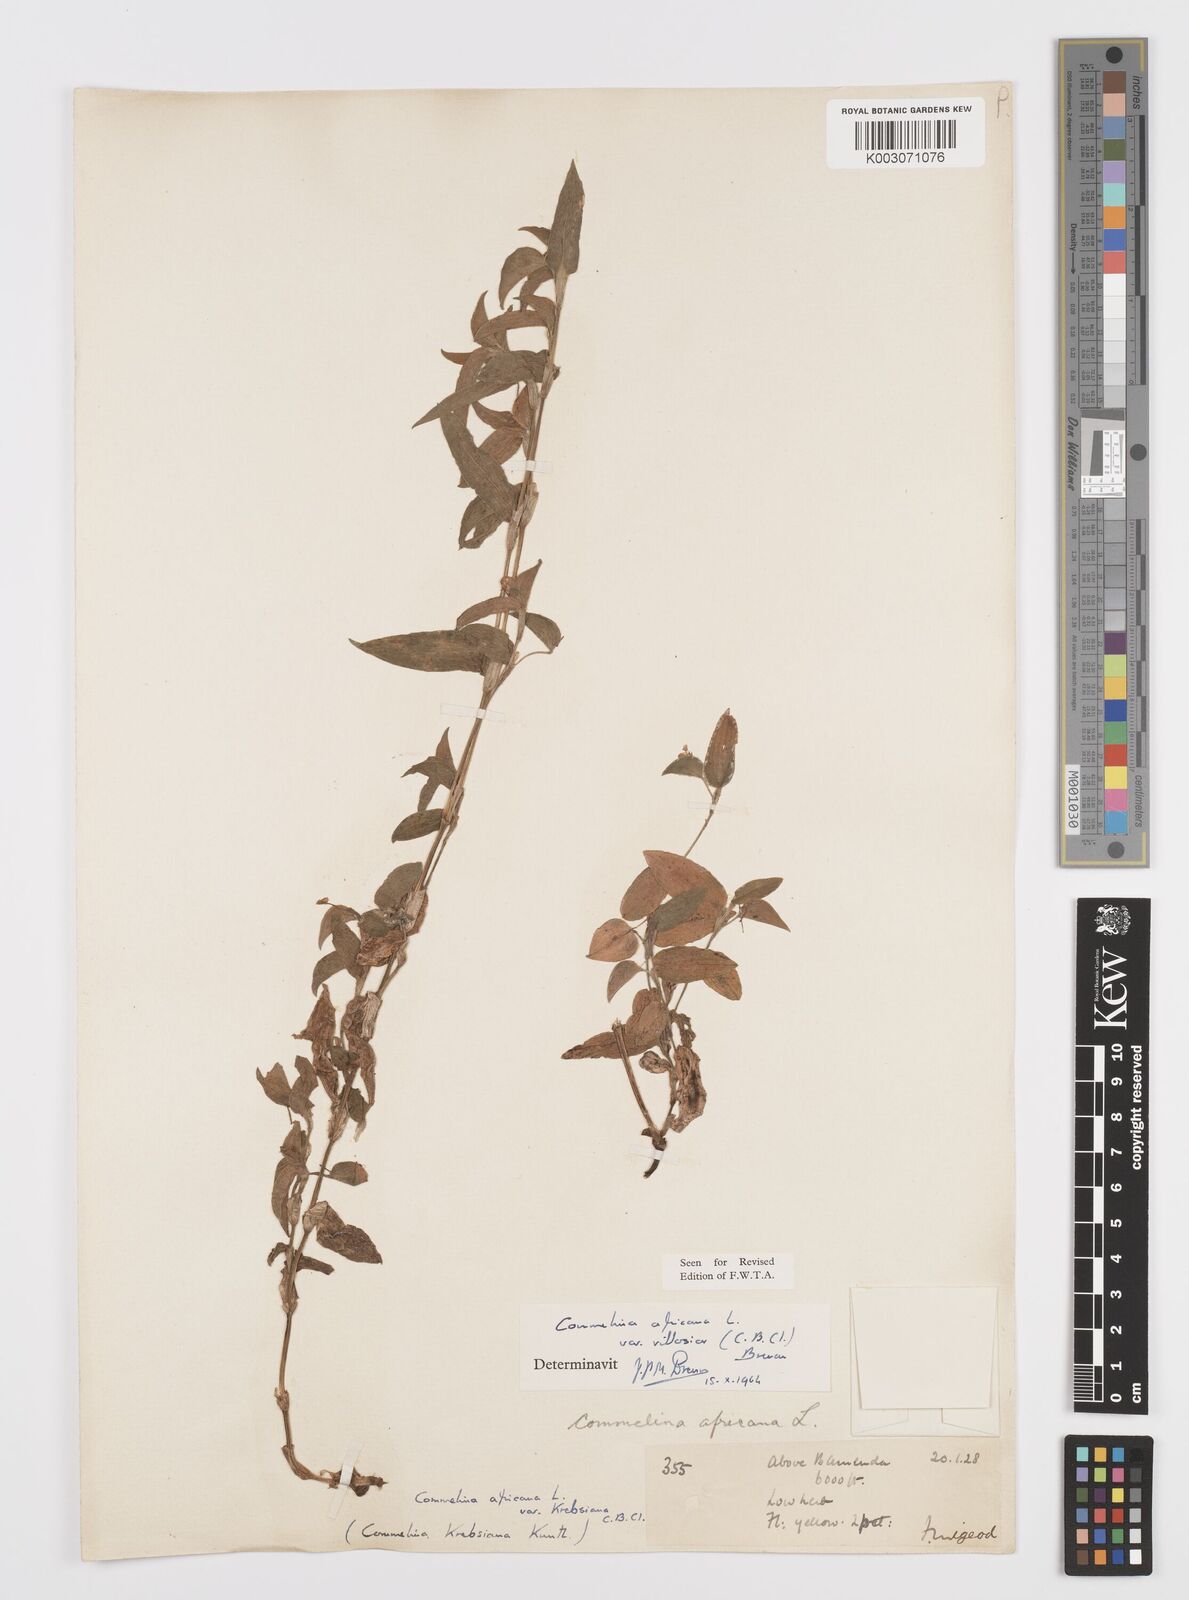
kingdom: Plantae
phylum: Tracheophyta
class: Liliopsida
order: Commelinales
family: Commelinaceae
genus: Commelina
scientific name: Commelina africana
